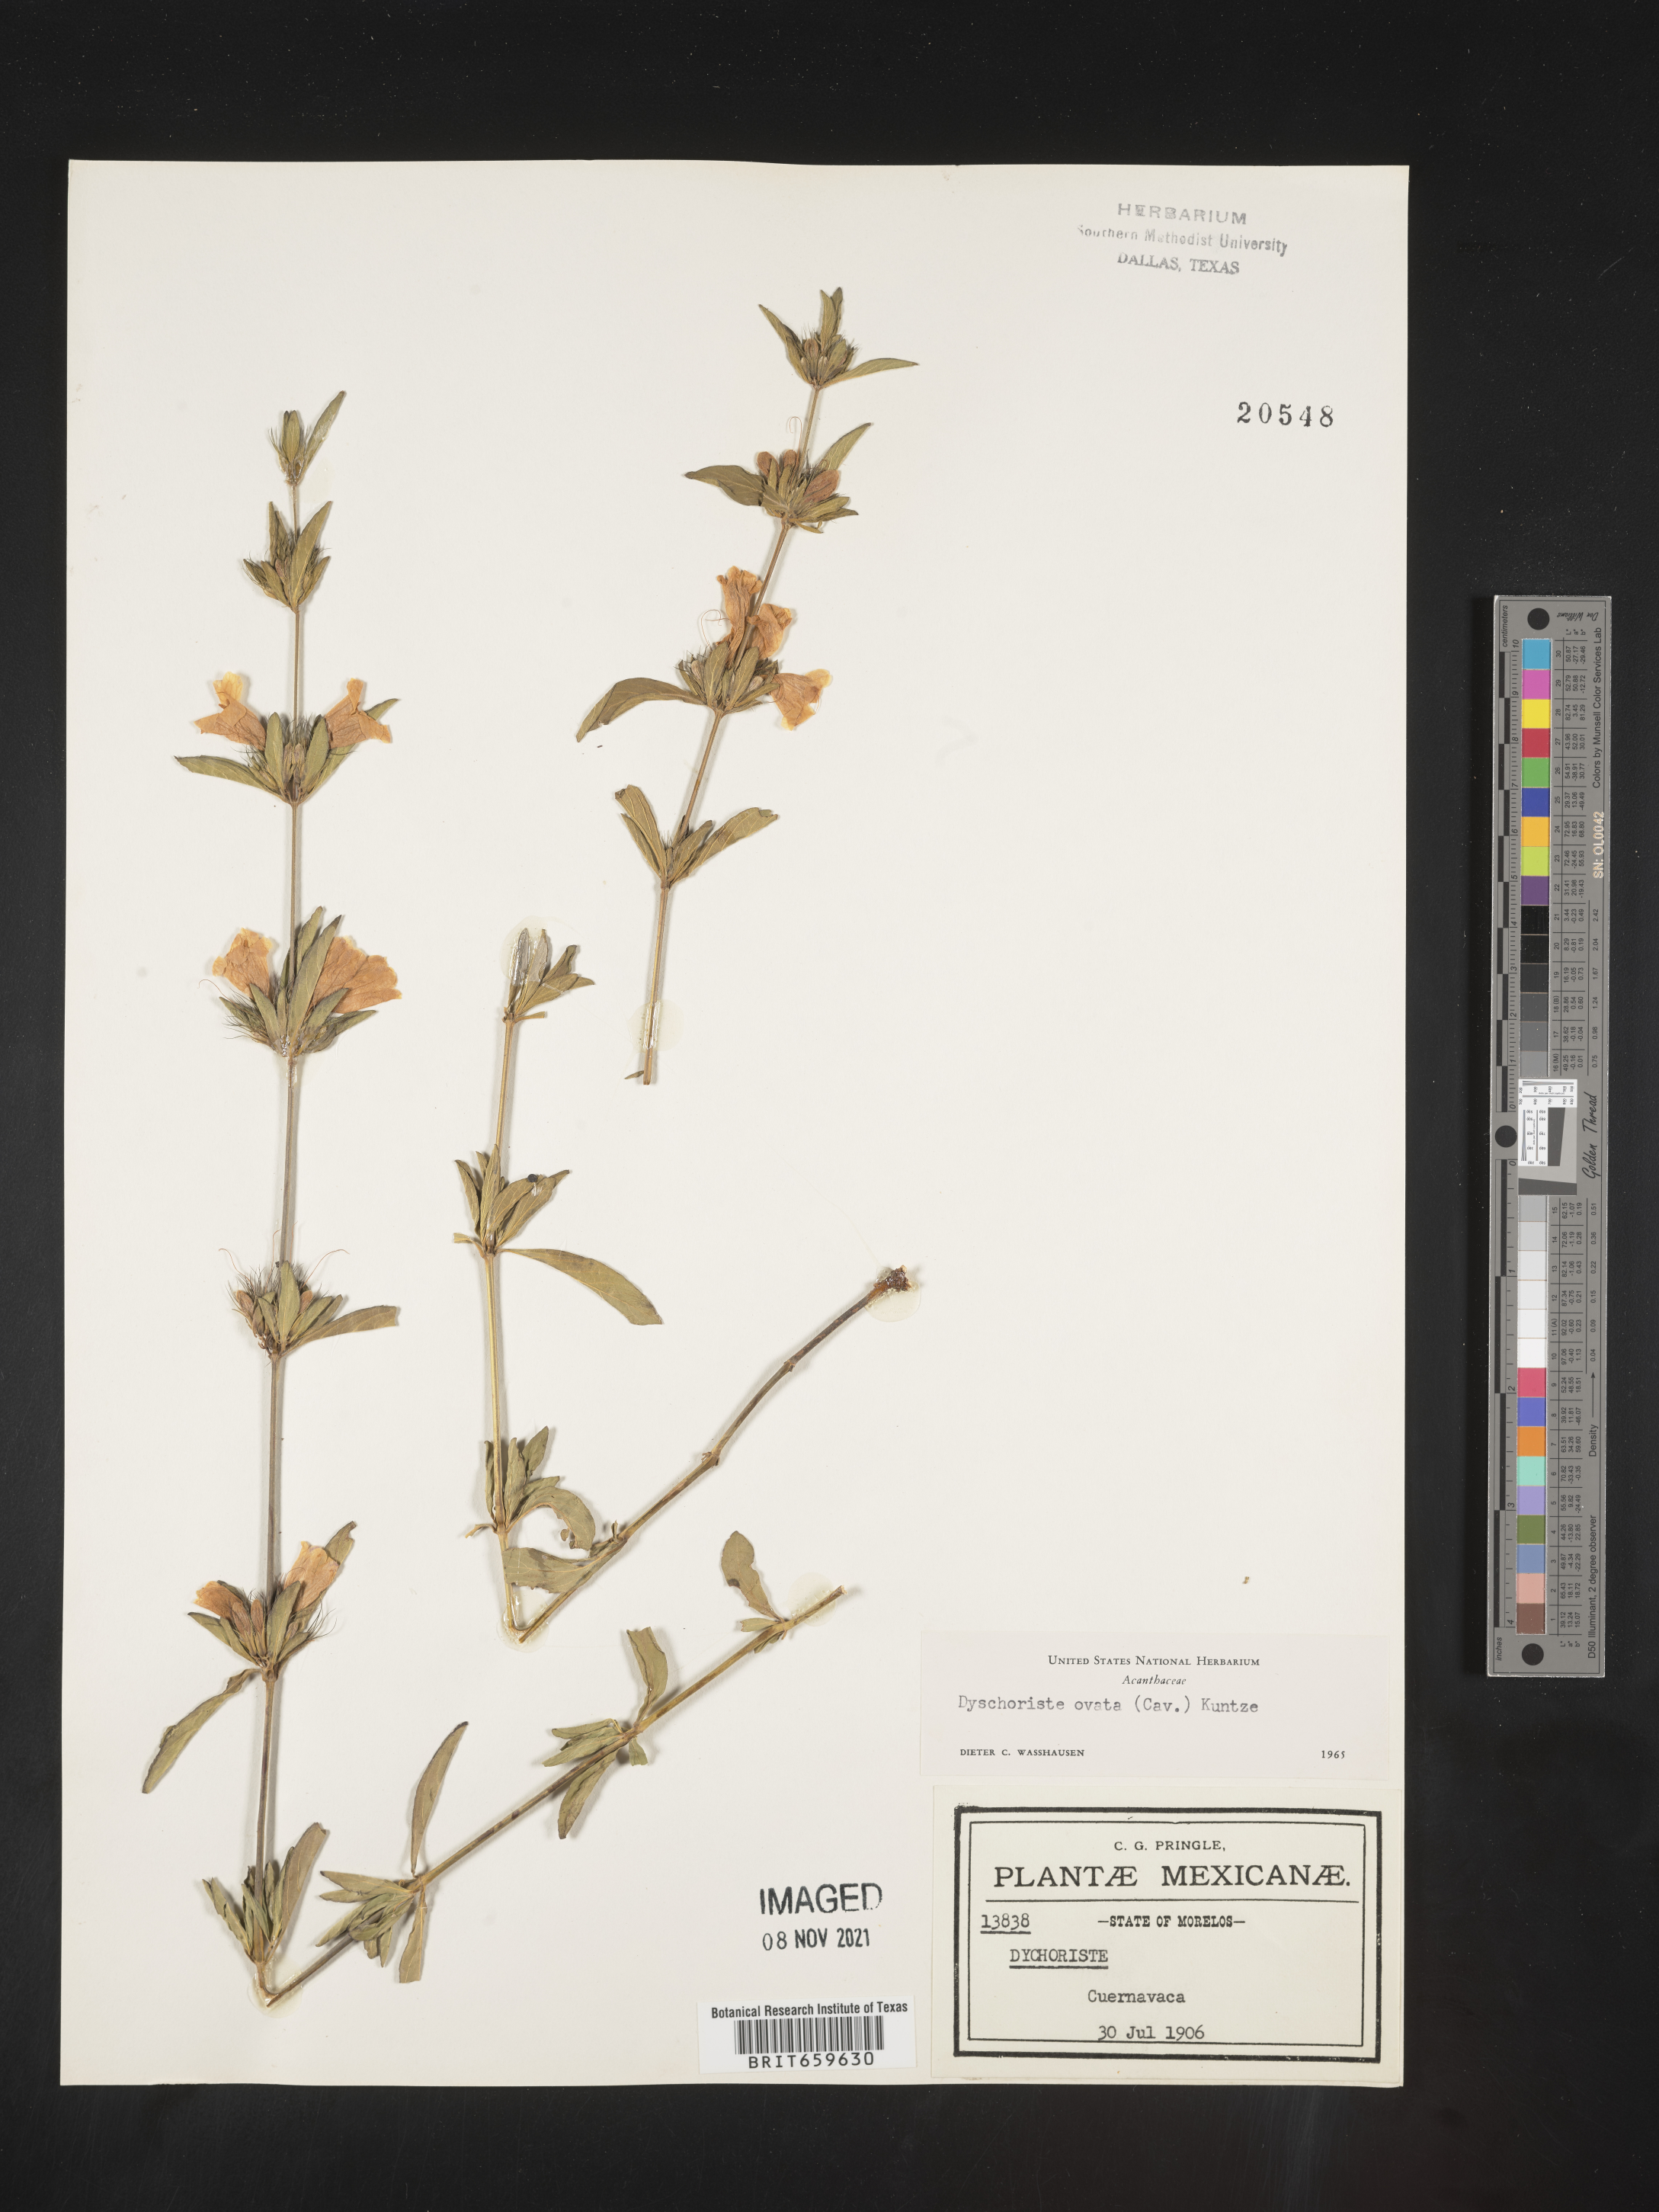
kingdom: Plantae
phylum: Tracheophyta
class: Magnoliopsida
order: Lamiales
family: Acanthaceae
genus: Dyschoriste
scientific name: Dyschoriste
